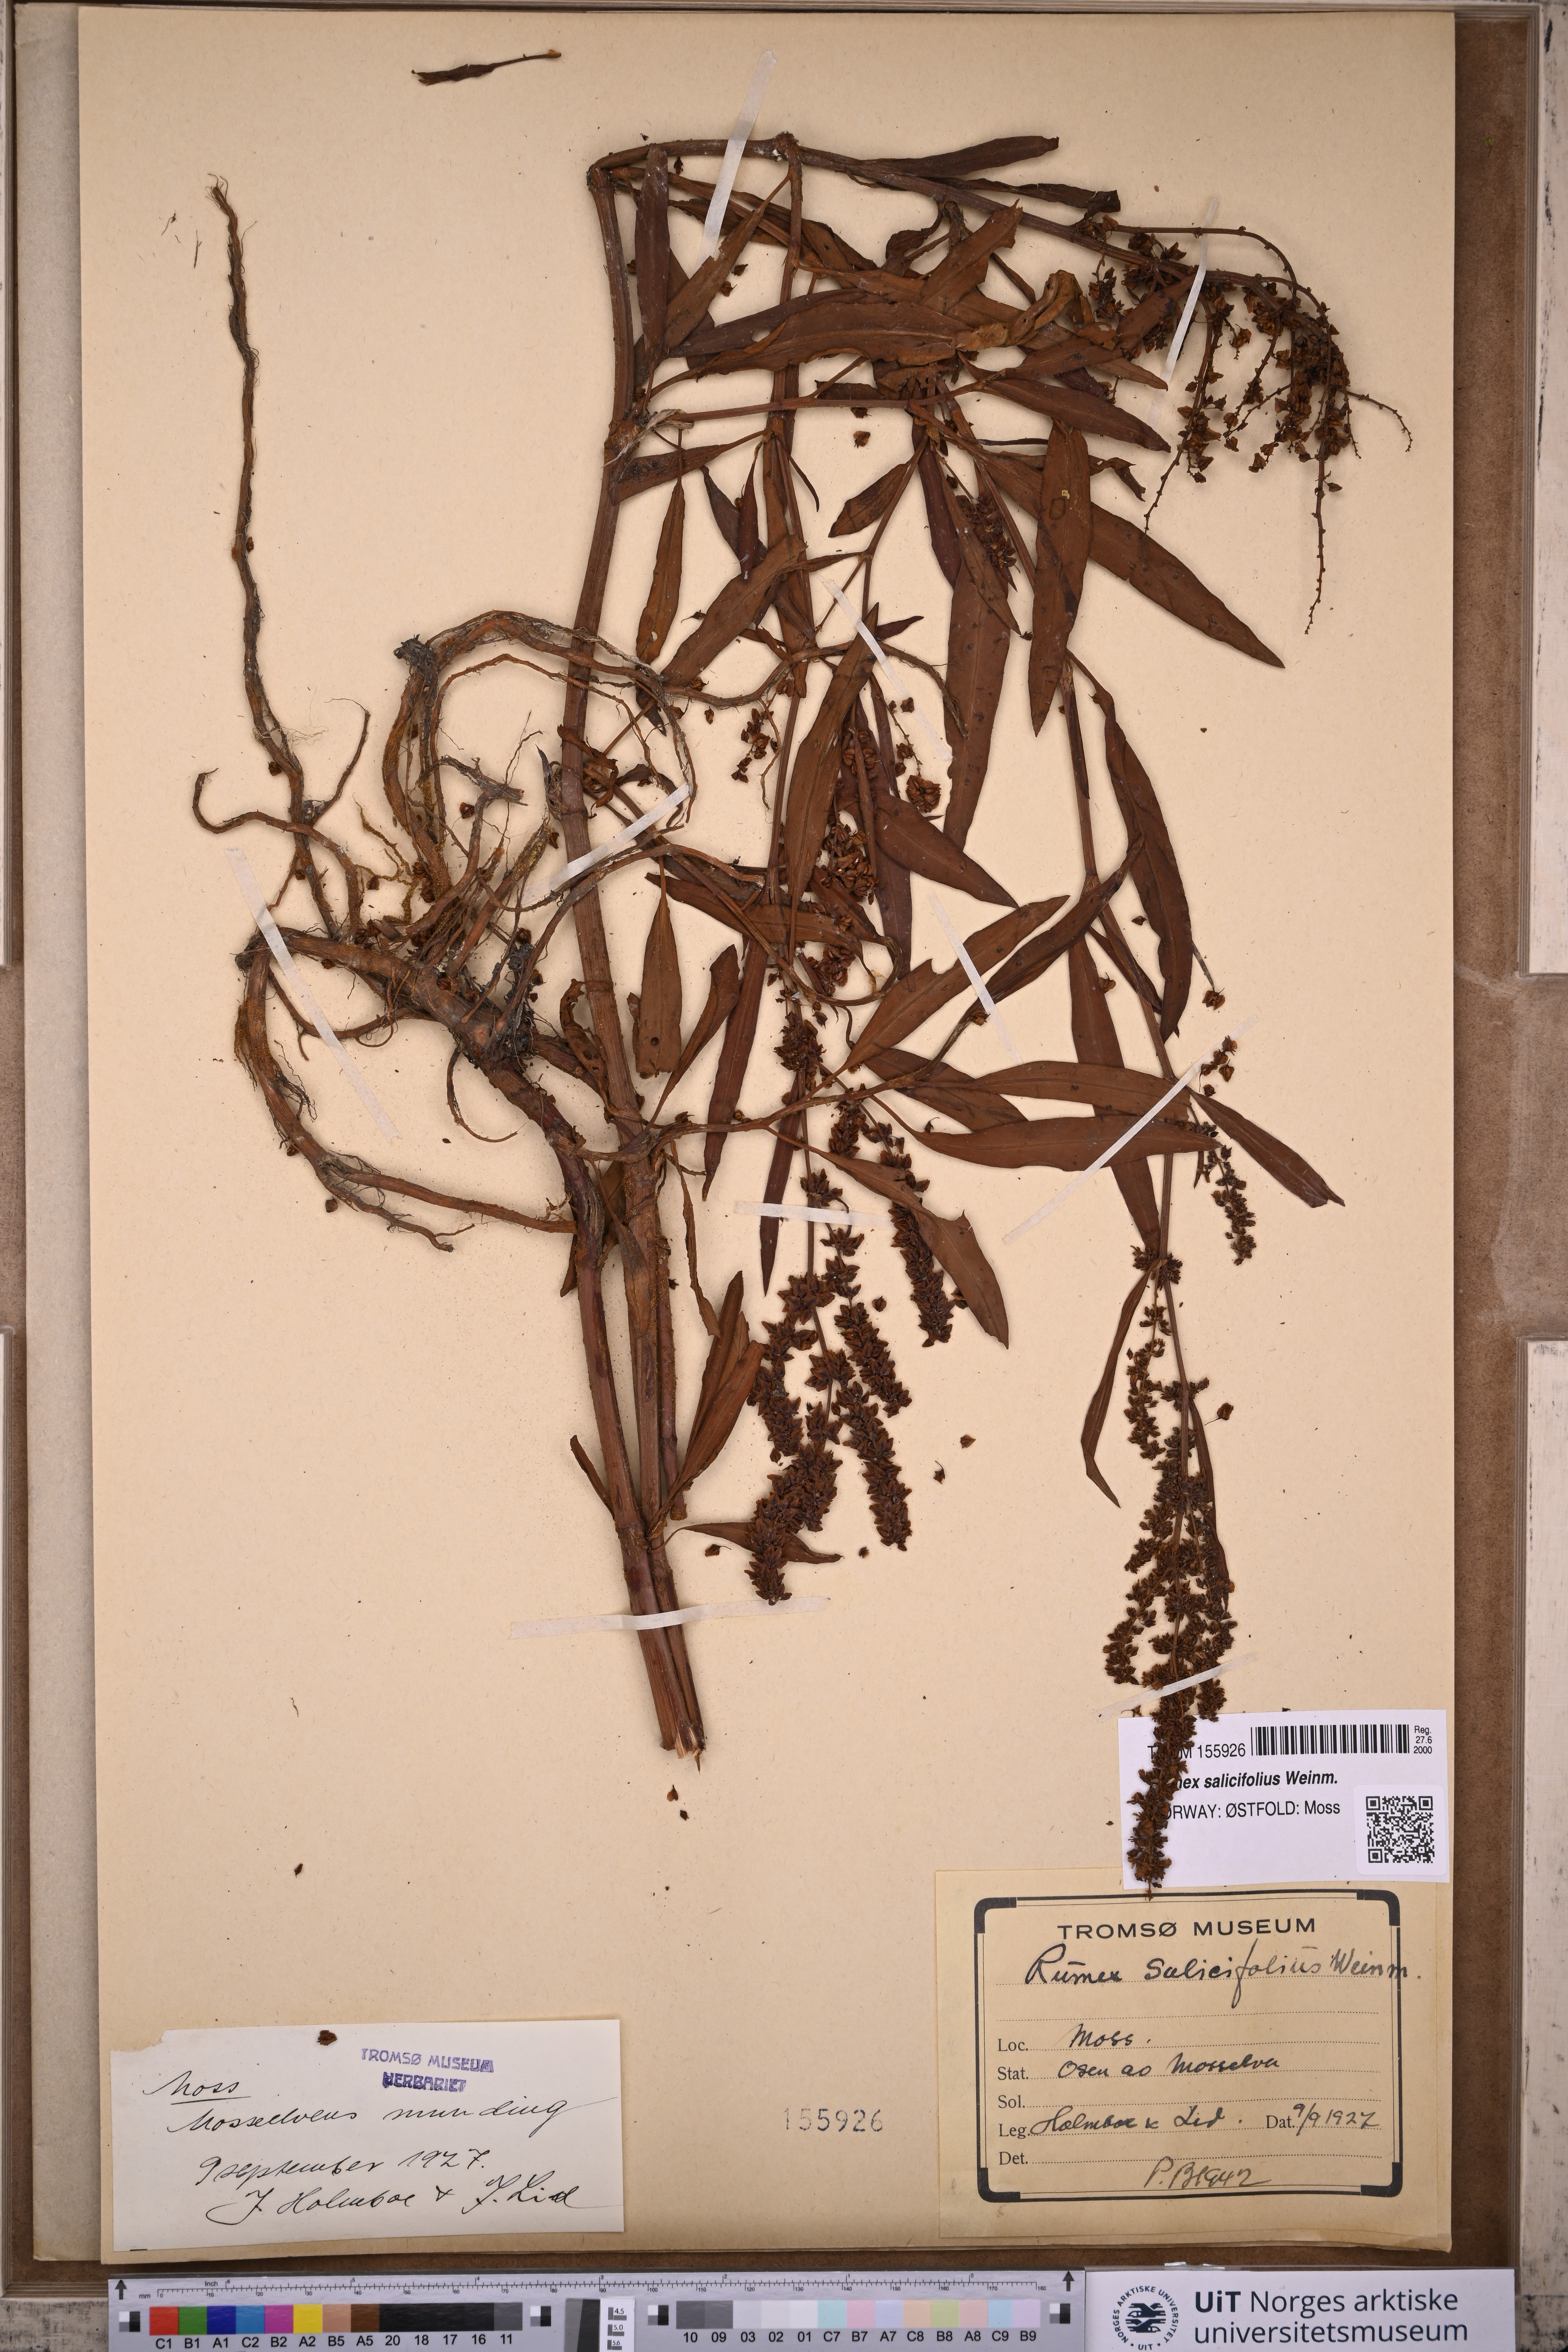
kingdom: Plantae
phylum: Tracheophyta
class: Magnoliopsida
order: Caryophyllales
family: Polygonaceae
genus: Rumex
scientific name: Rumex triangulivalvis
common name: Triangular-valve dock
